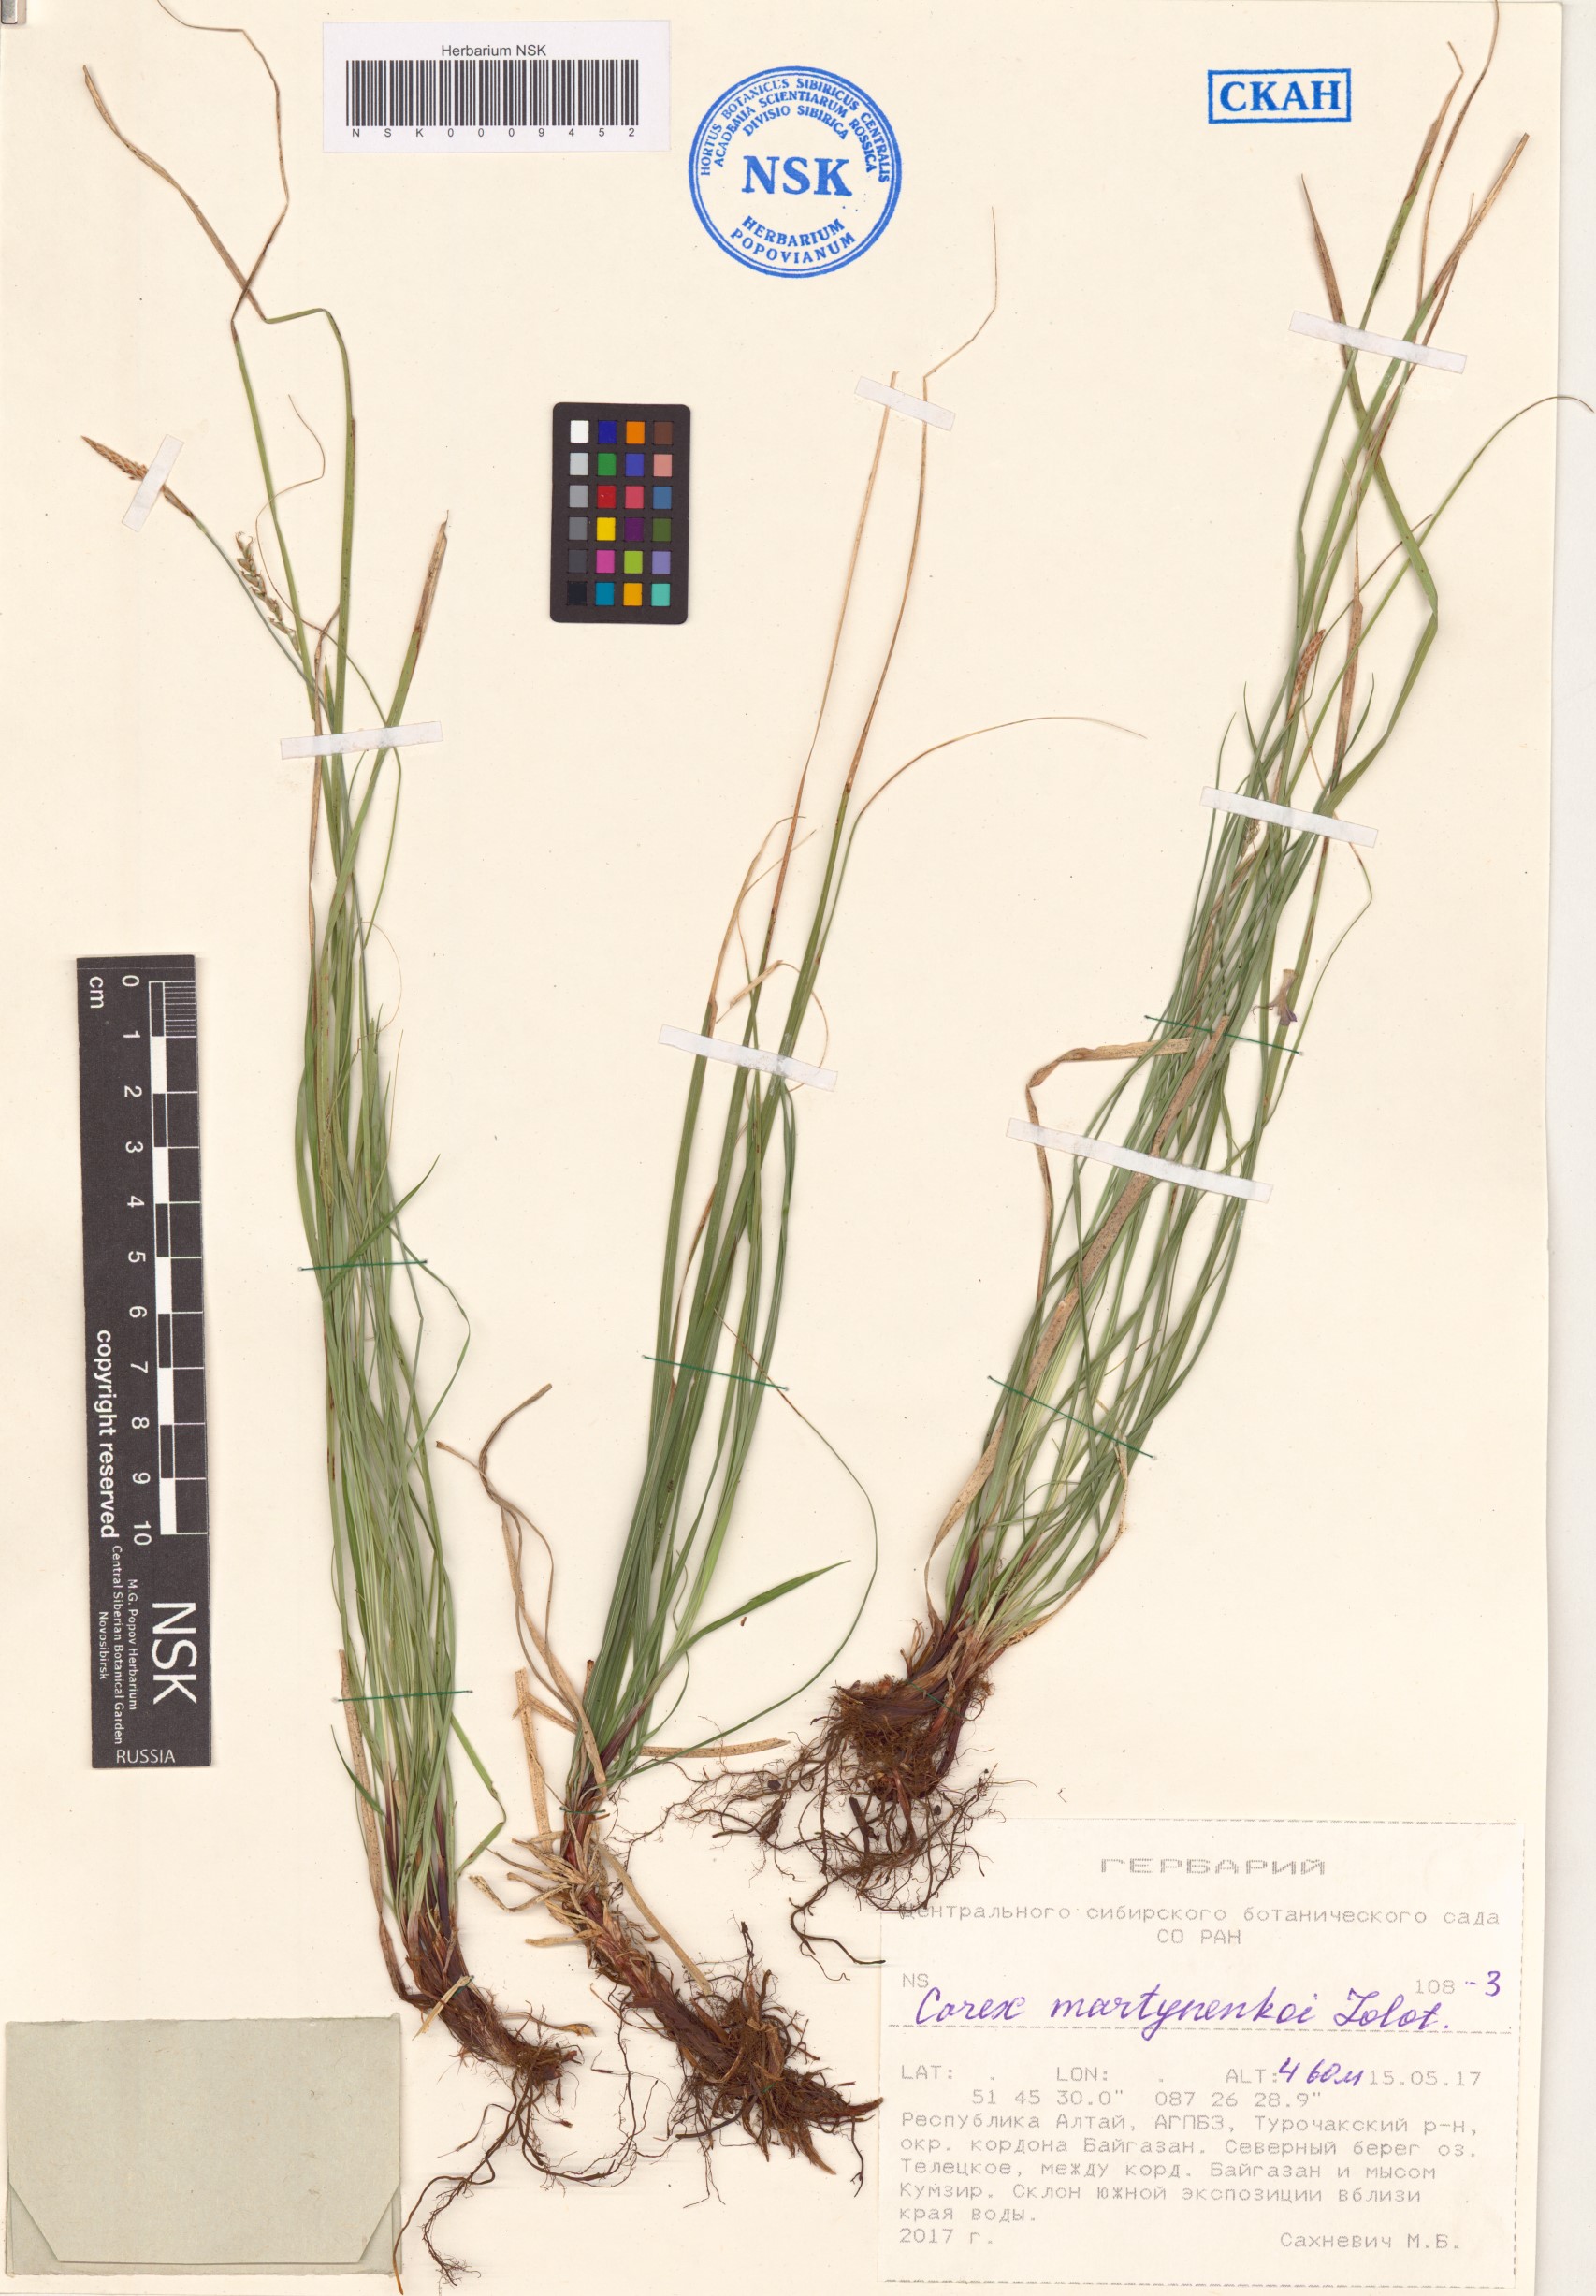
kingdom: Plantae
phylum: Tracheophyta
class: Liliopsida
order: Poales
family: Cyperaceae
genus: Carex
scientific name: Carex martynenkoi
